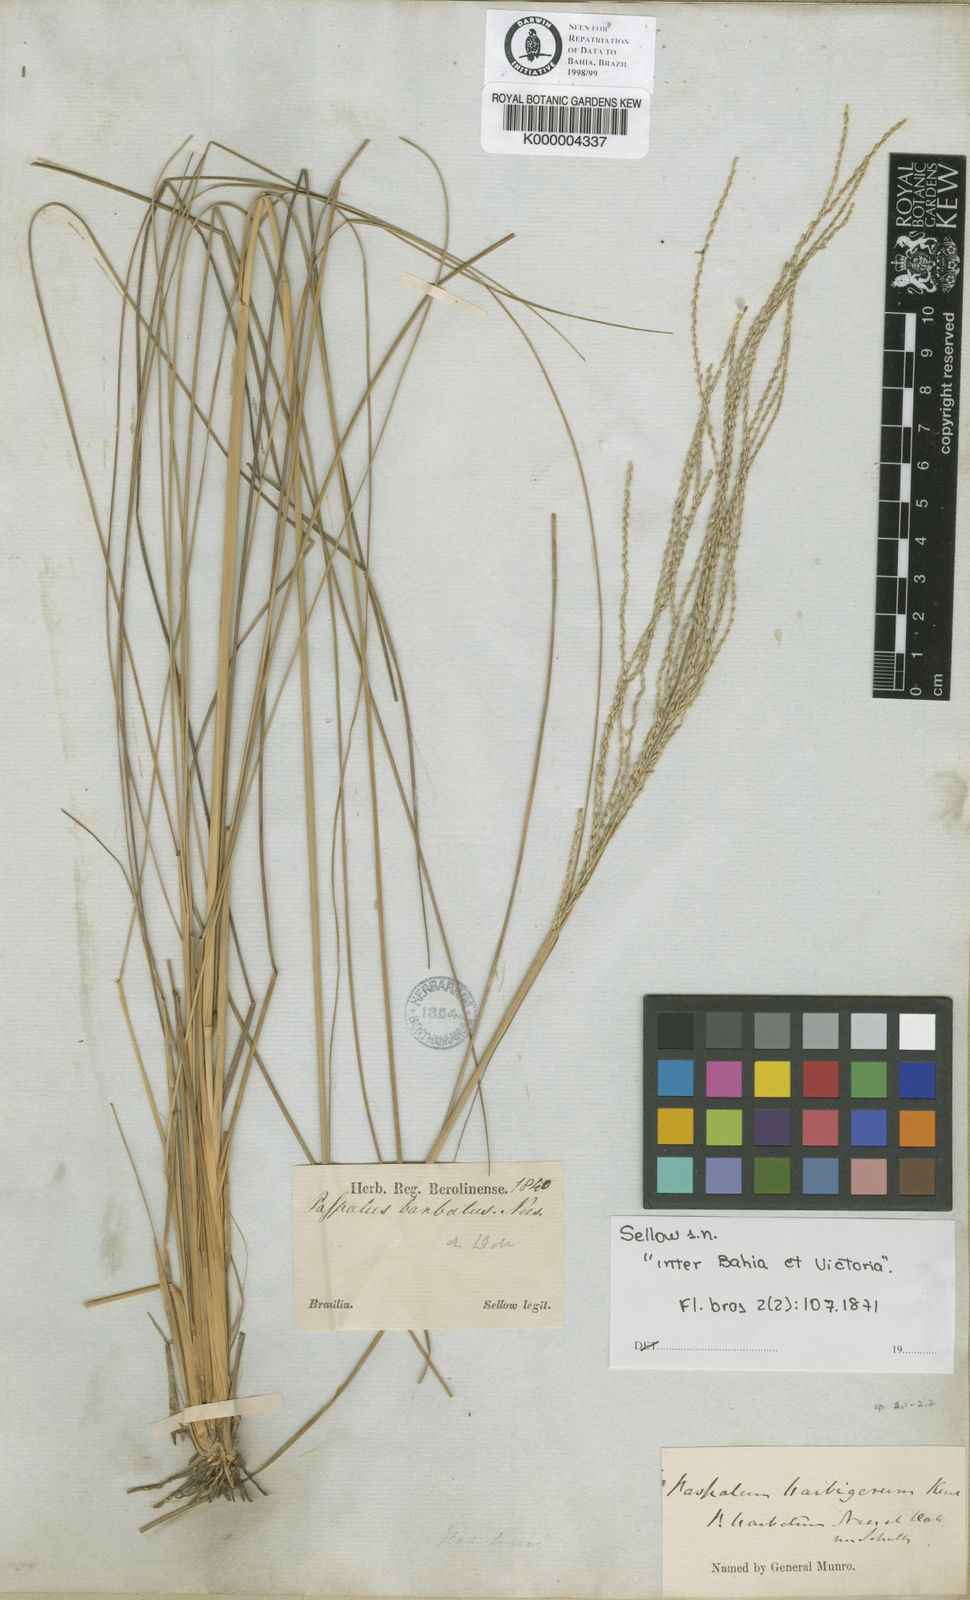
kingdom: Plantae
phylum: Tracheophyta
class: Liliopsida
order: Poales
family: Poaceae
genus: Axonopus
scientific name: Axonopus siccus
